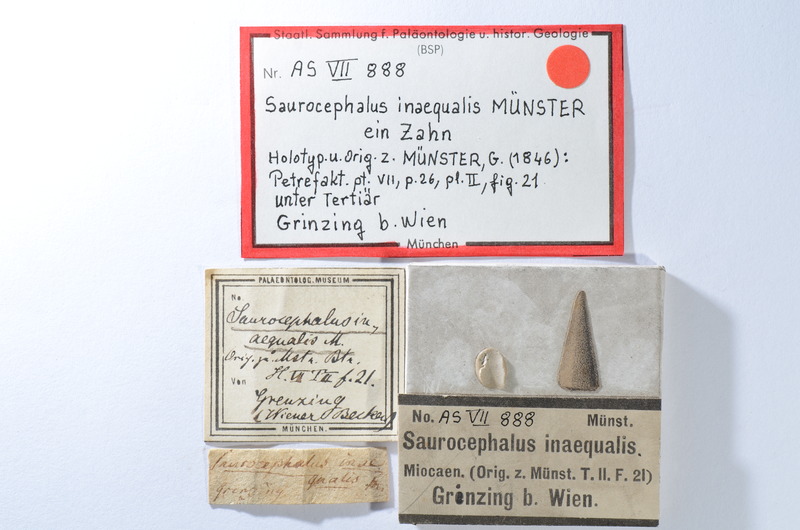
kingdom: Animalia
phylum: Chordata
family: Saurodontidae
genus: Saurocephalus
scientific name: Saurocephalus
